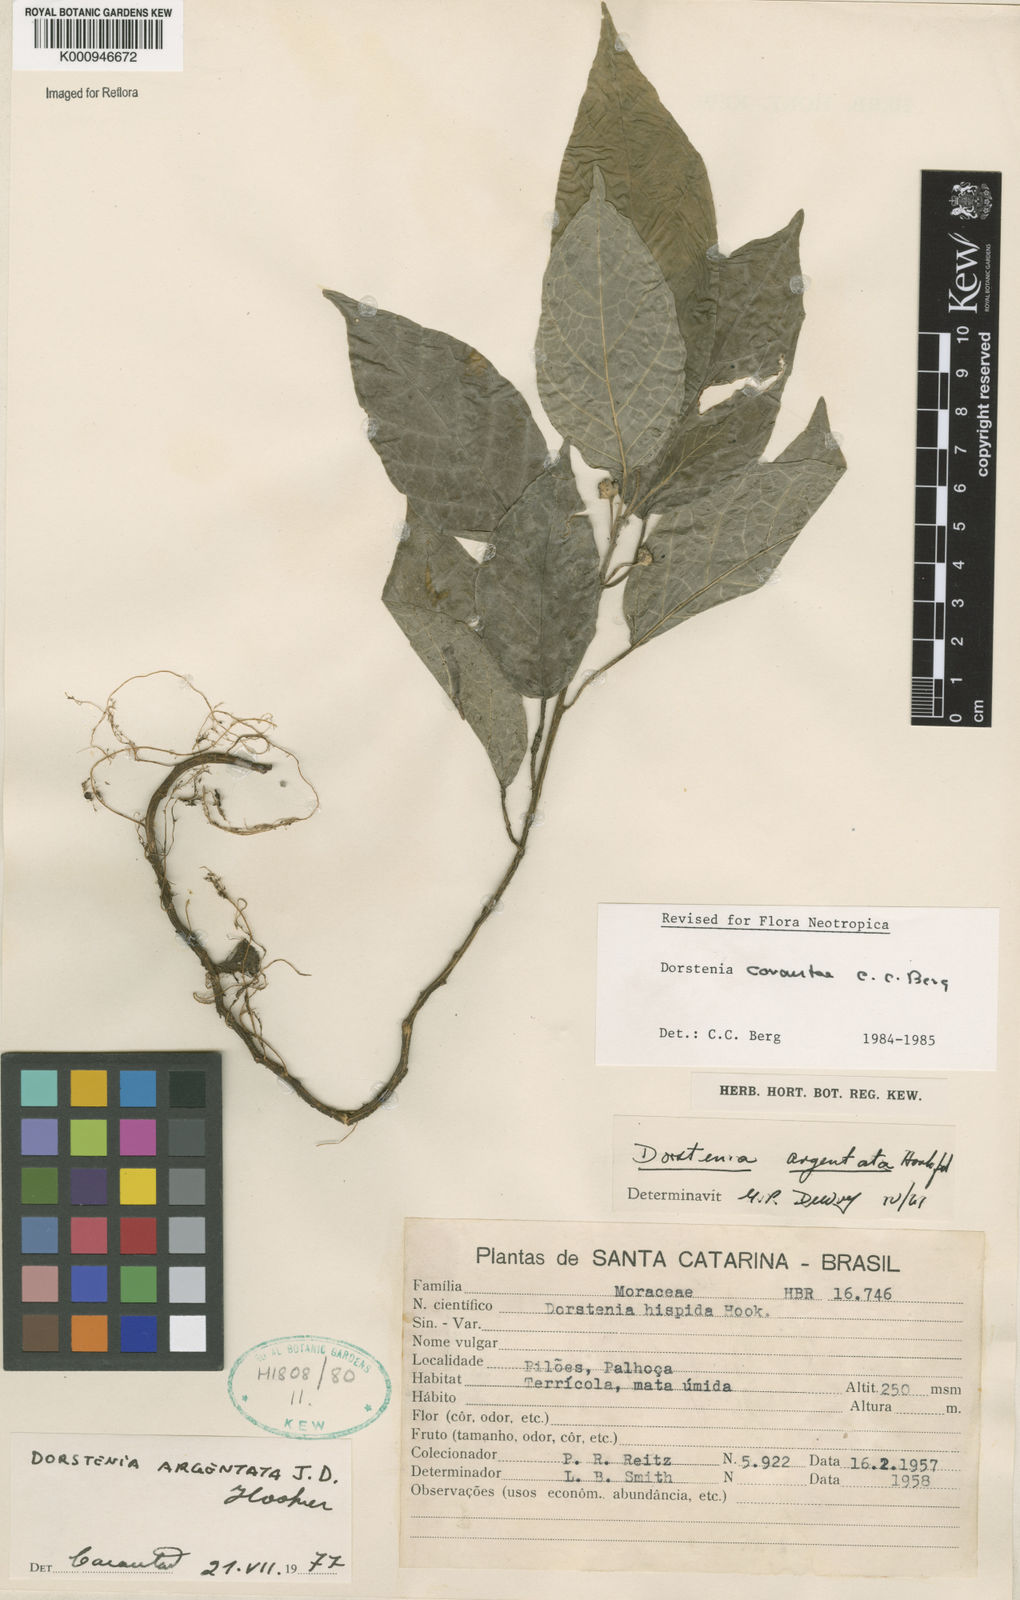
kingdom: Plantae
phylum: Tracheophyta
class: Magnoliopsida
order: Rosales
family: Moraceae
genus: Dorstenia
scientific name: Dorstenia carautae
